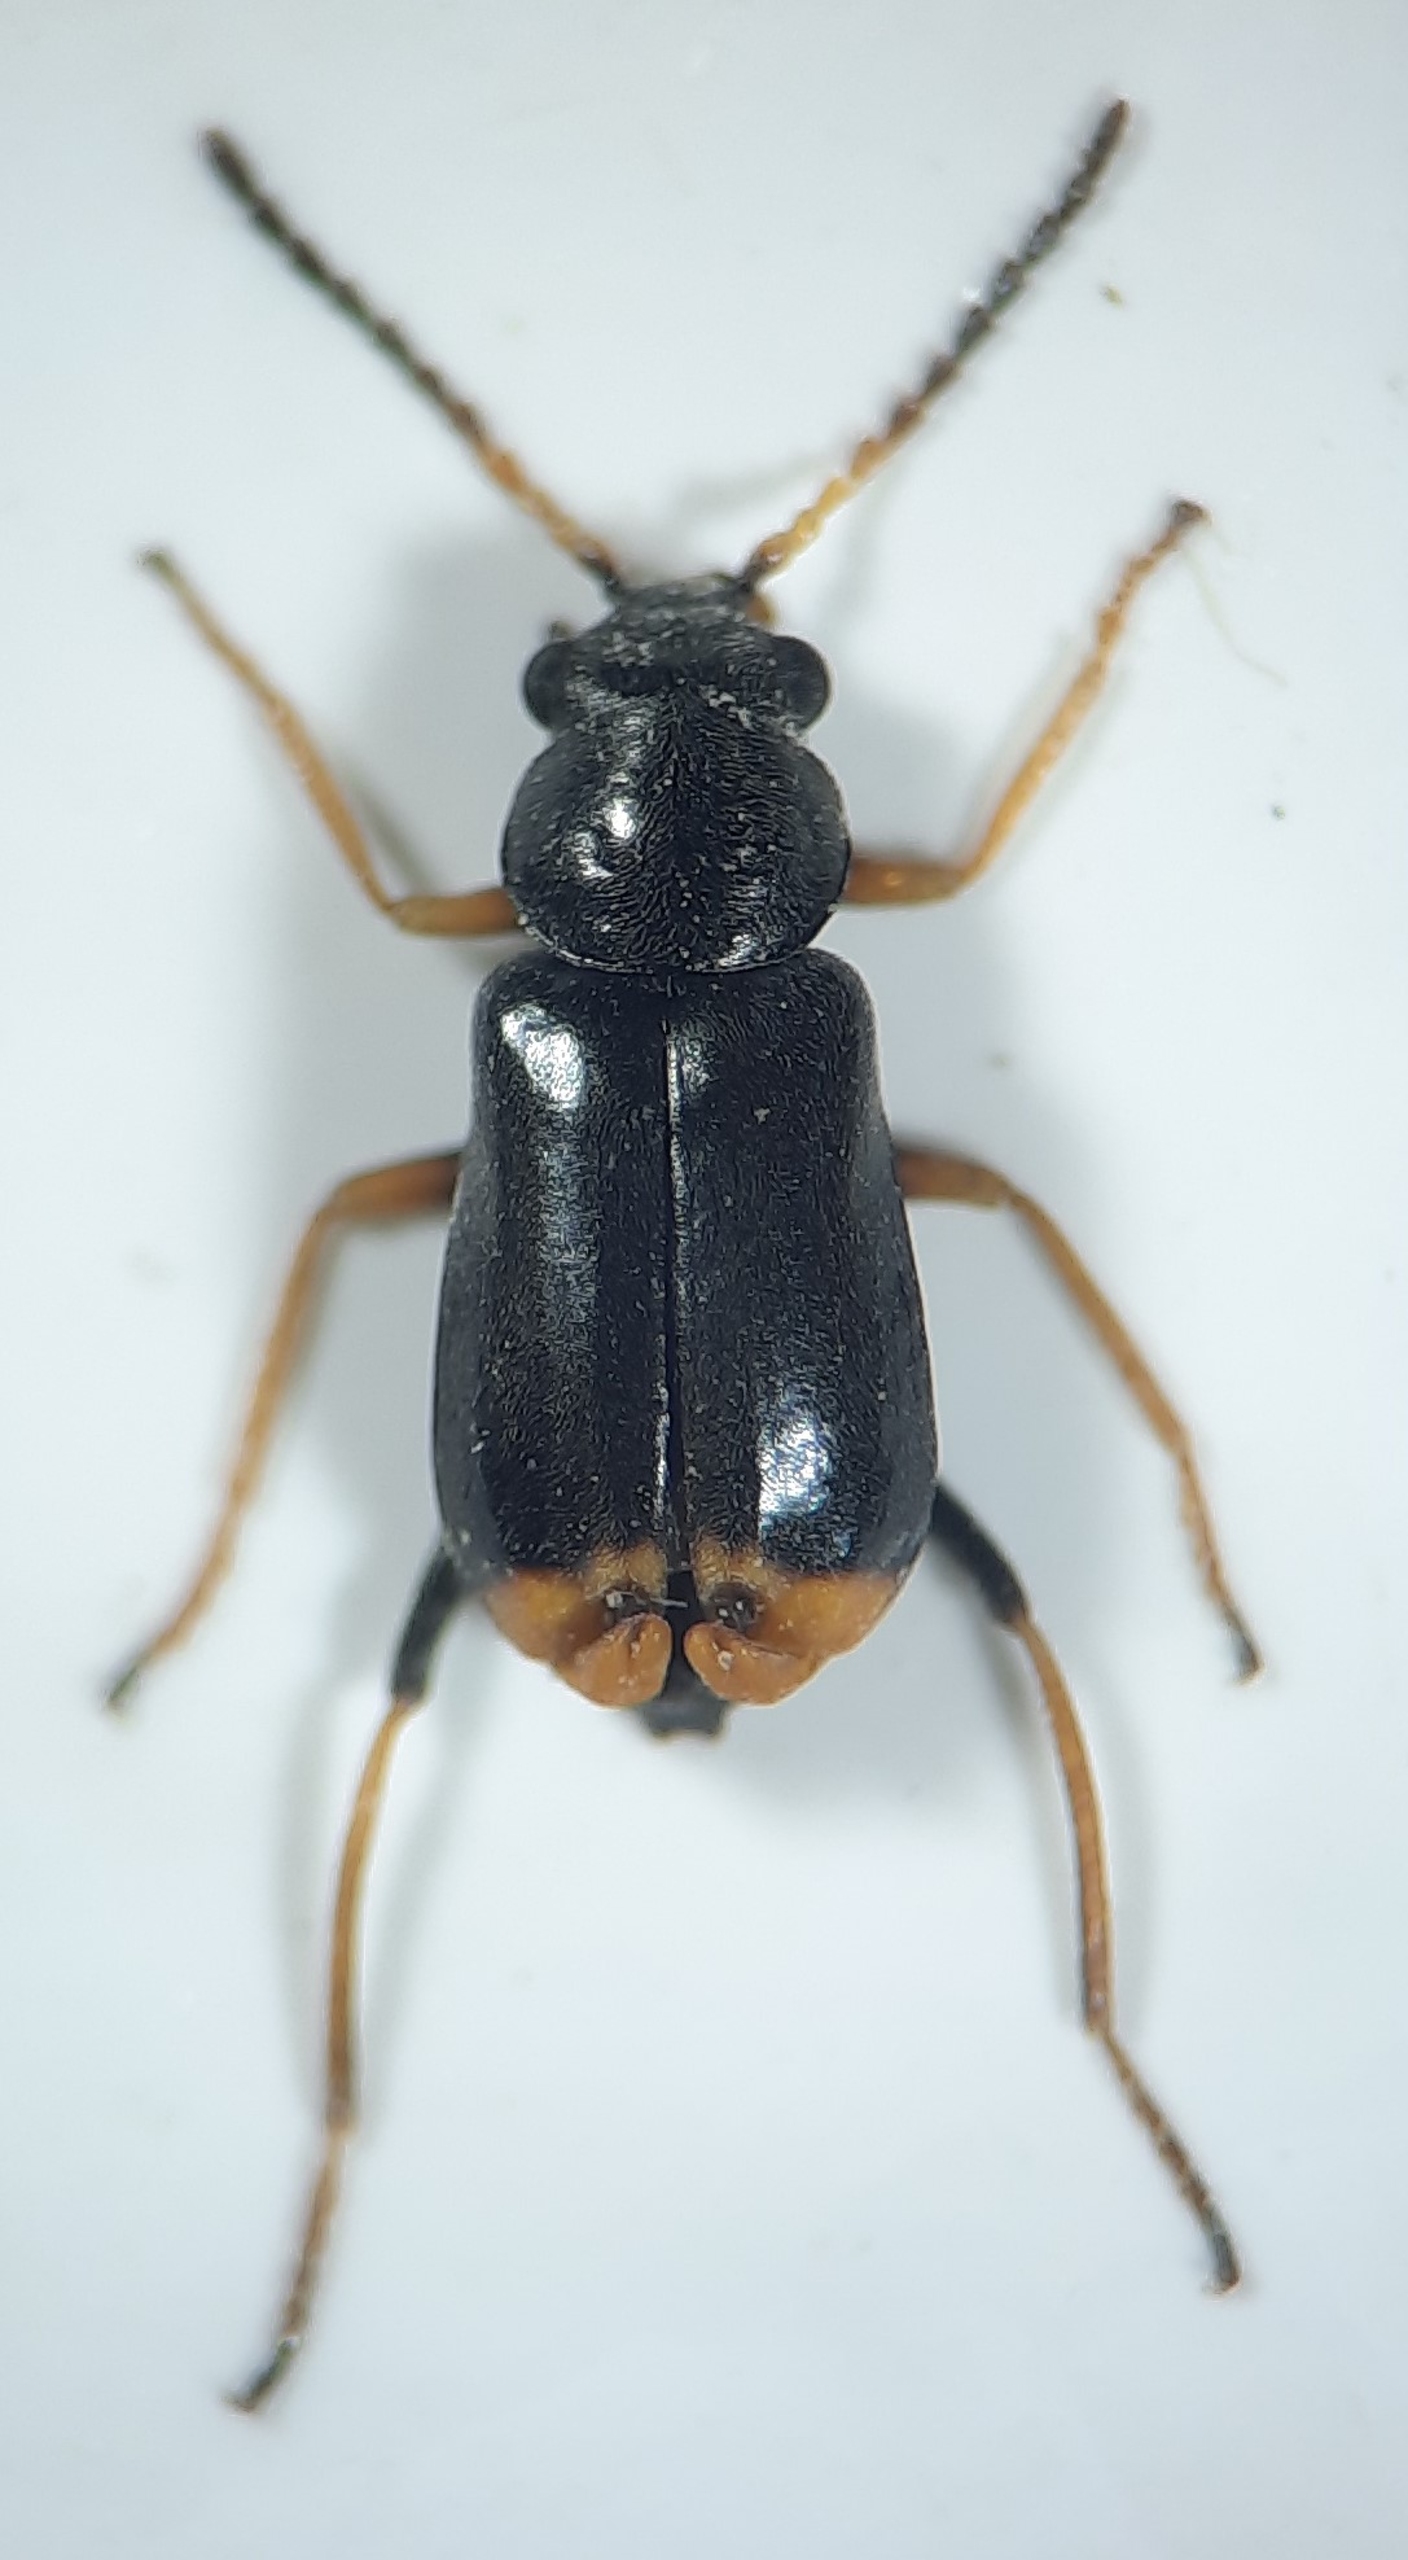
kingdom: Animalia
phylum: Arthropoda
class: Insecta
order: Coleoptera
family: Malachiidae
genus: Ebaeus
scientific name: Ebaeus pedicularius
